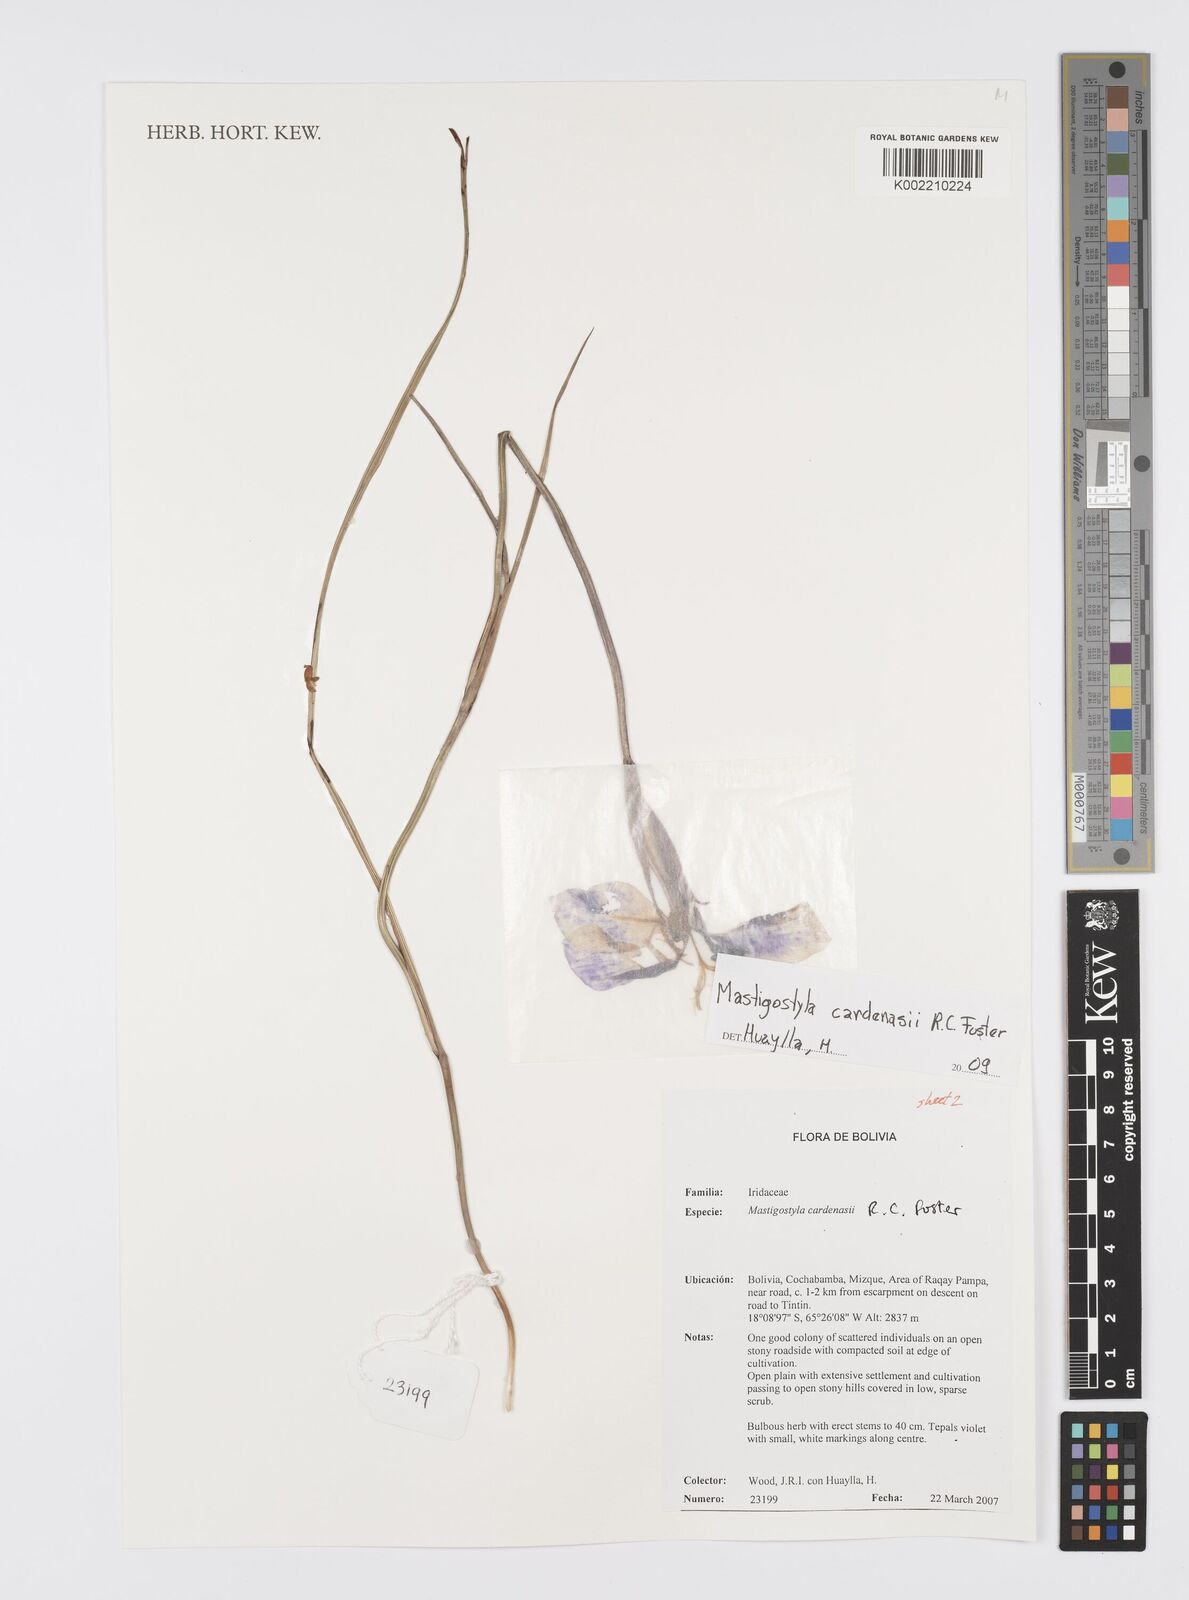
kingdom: Plantae
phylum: Tracheophyta
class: Liliopsida
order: Asparagales
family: Iridaceae
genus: Mastigostyla
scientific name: Mastigostyla cardenasii
